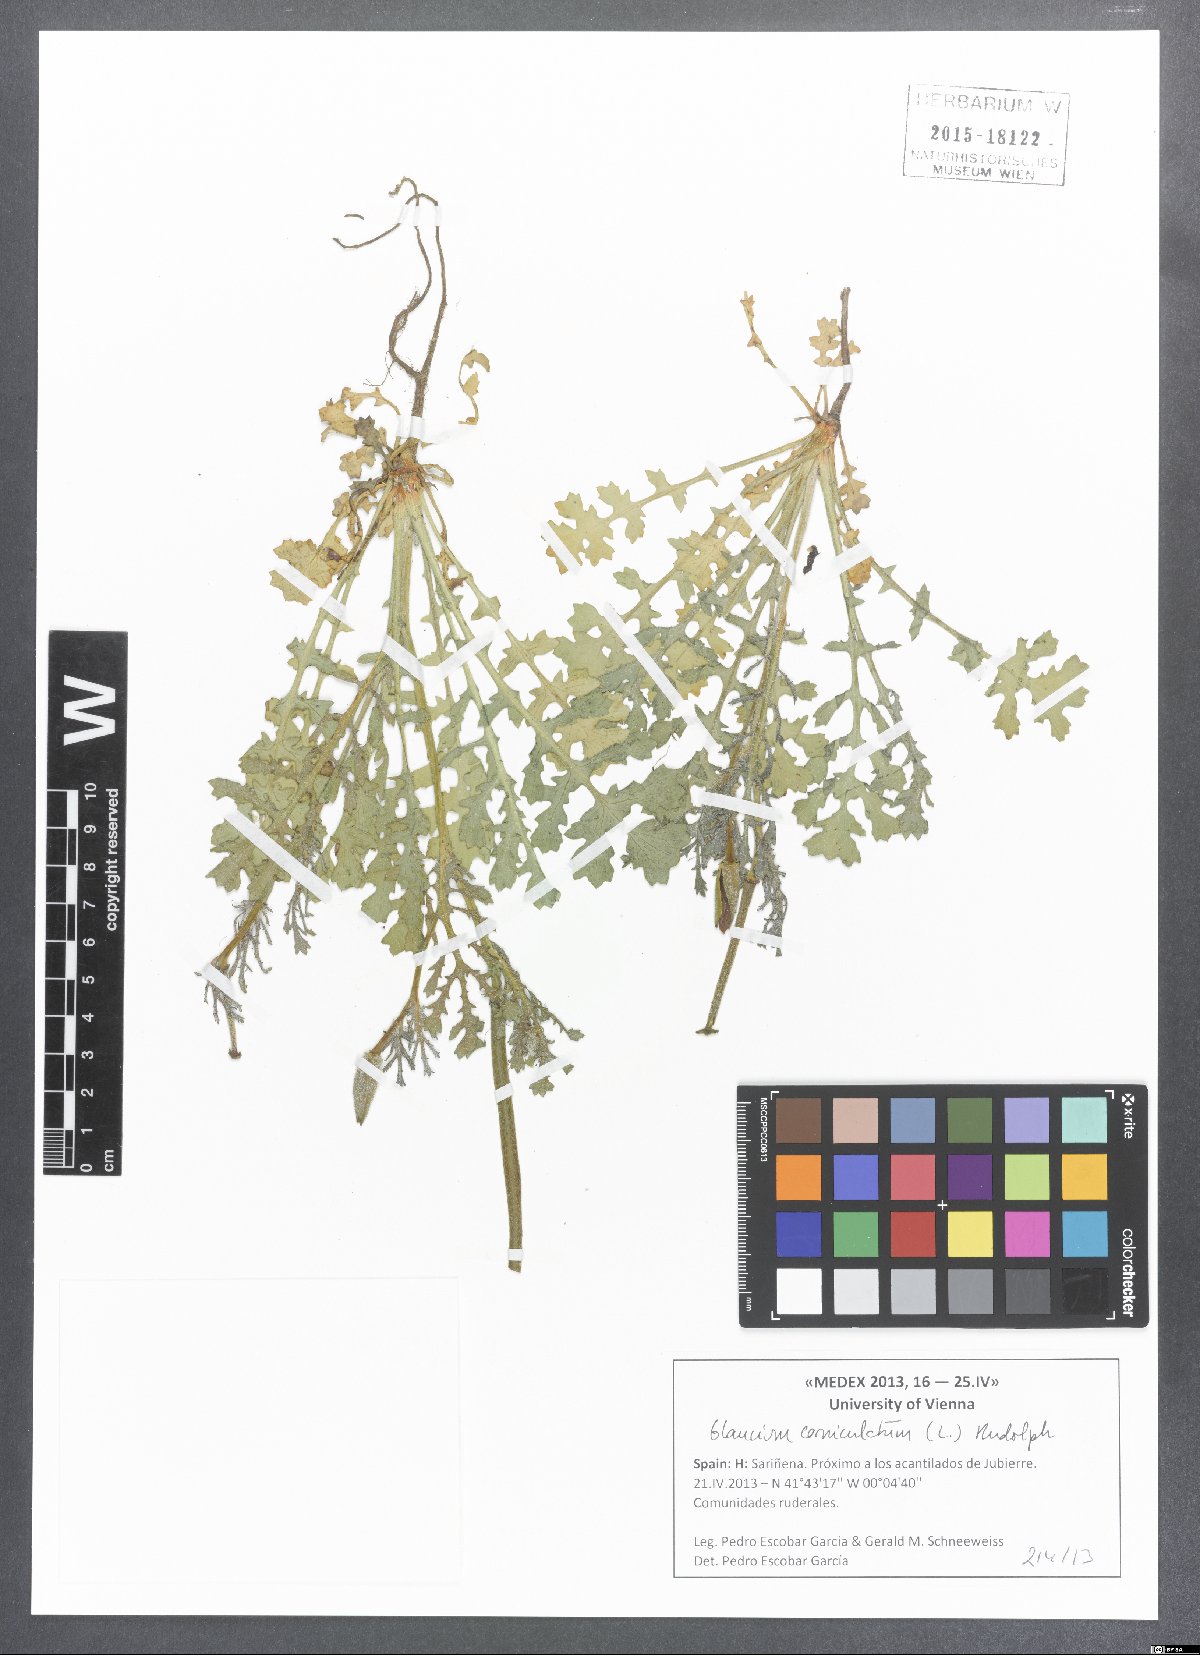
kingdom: Plantae
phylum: Tracheophyta
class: Magnoliopsida
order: Ranunculales
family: Papaveraceae
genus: Glaucium
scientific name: Glaucium corniculatum
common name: Red horned-poppy
